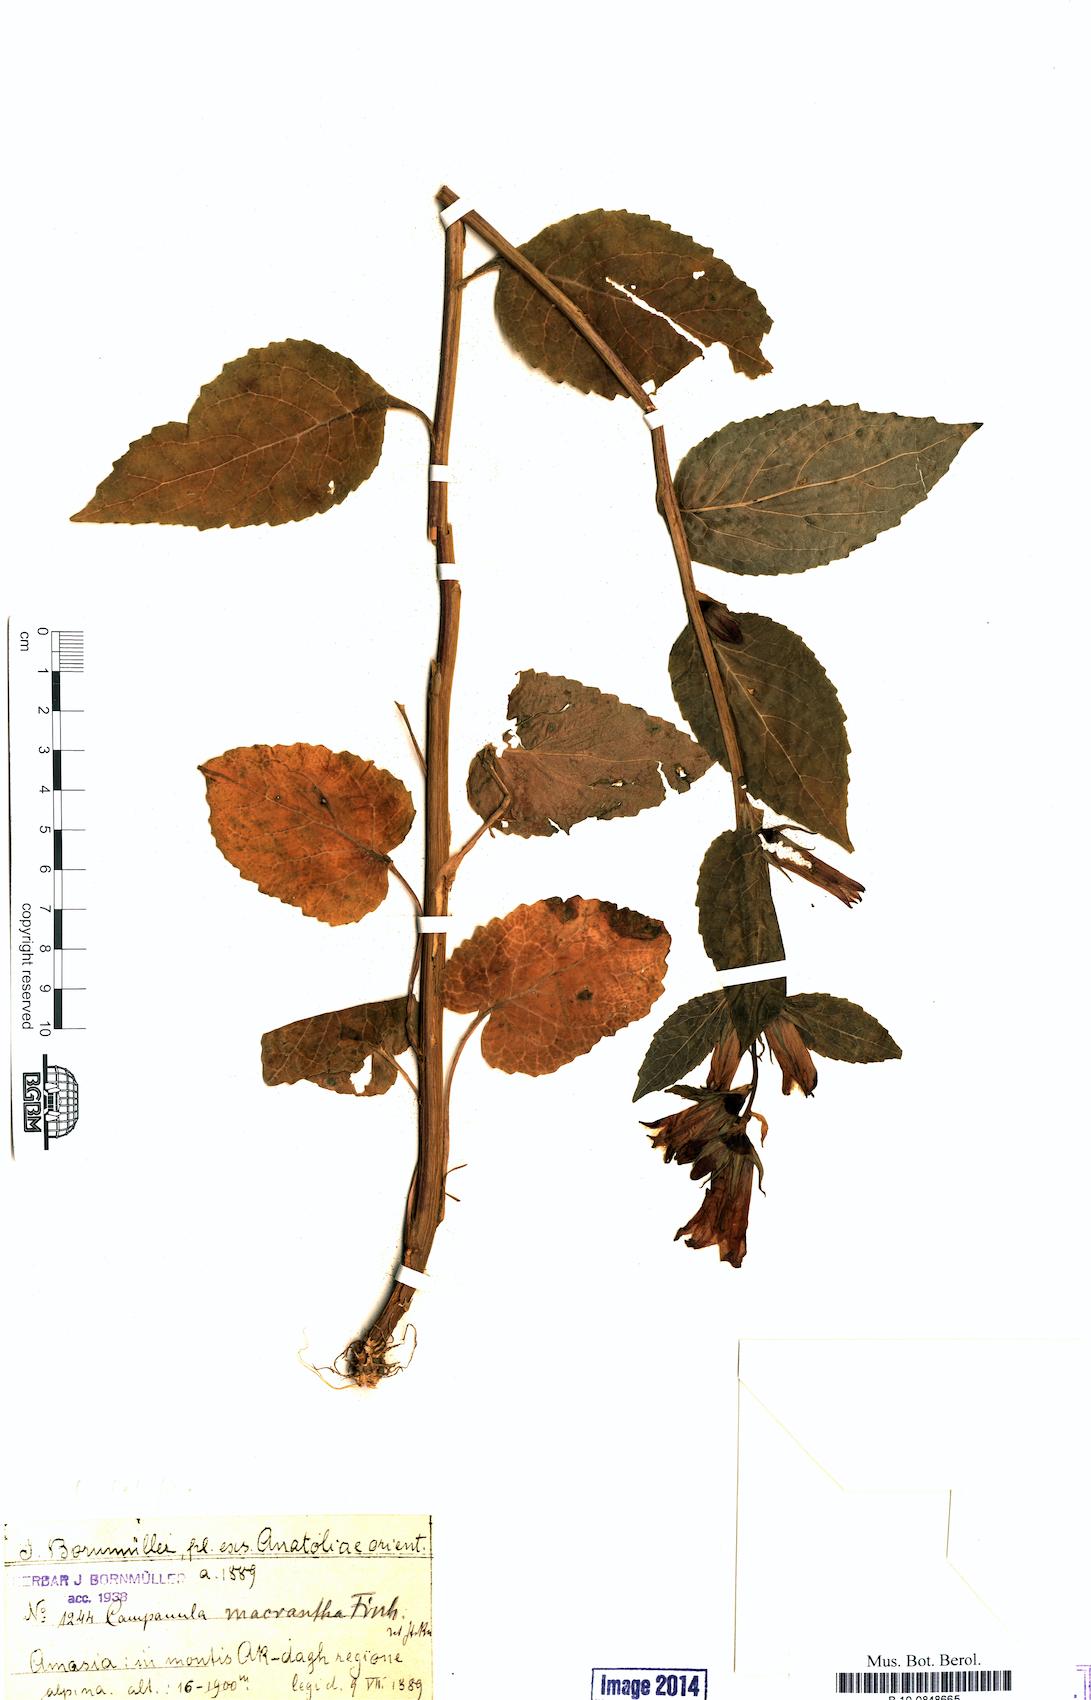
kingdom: Plantae
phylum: Tracheophyta
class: Magnoliopsida
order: Asterales
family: Campanulaceae
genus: Campanula
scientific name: Campanula latifolia
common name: Giant bellflower
